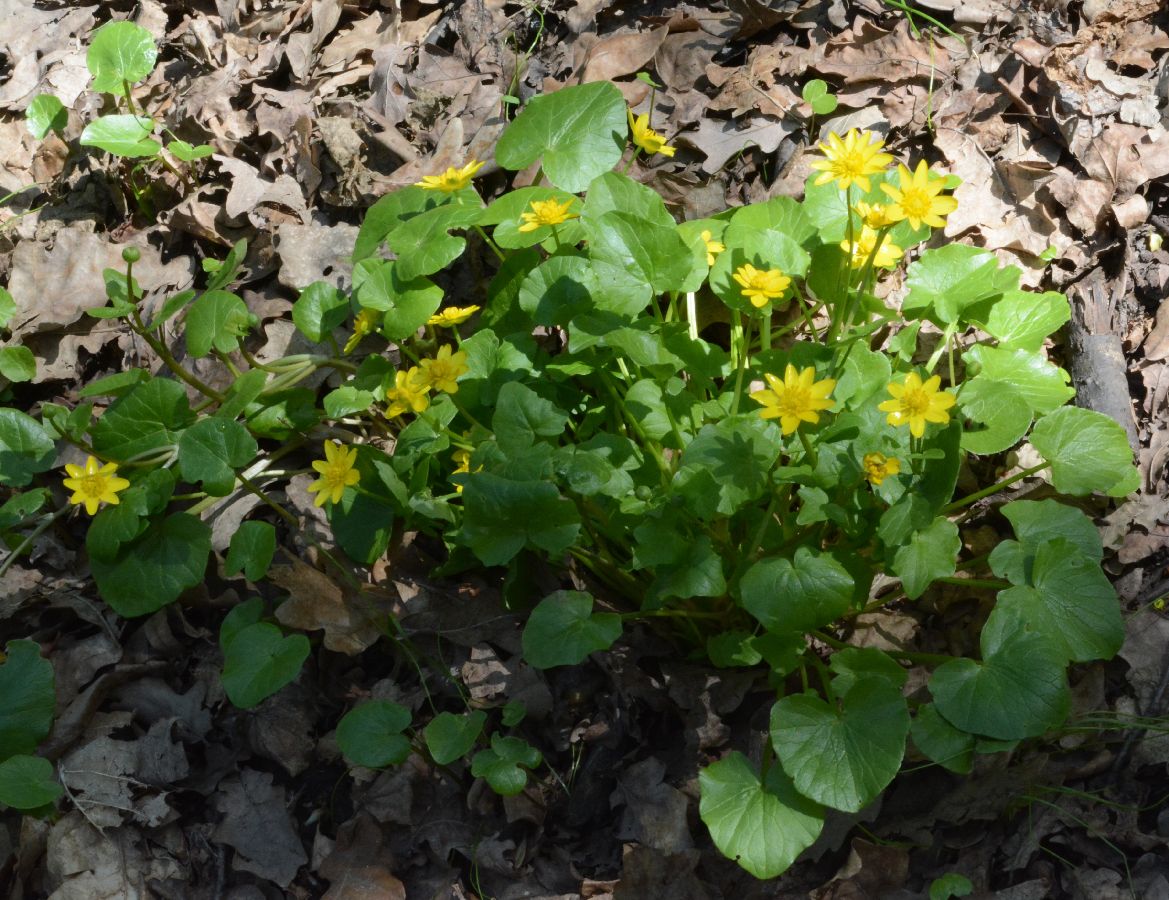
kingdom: Plantae
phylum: Tracheophyta
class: Magnoliopsida
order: Ranunculales
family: Ranunculaceae
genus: Ficaria
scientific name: Ficaria verna
